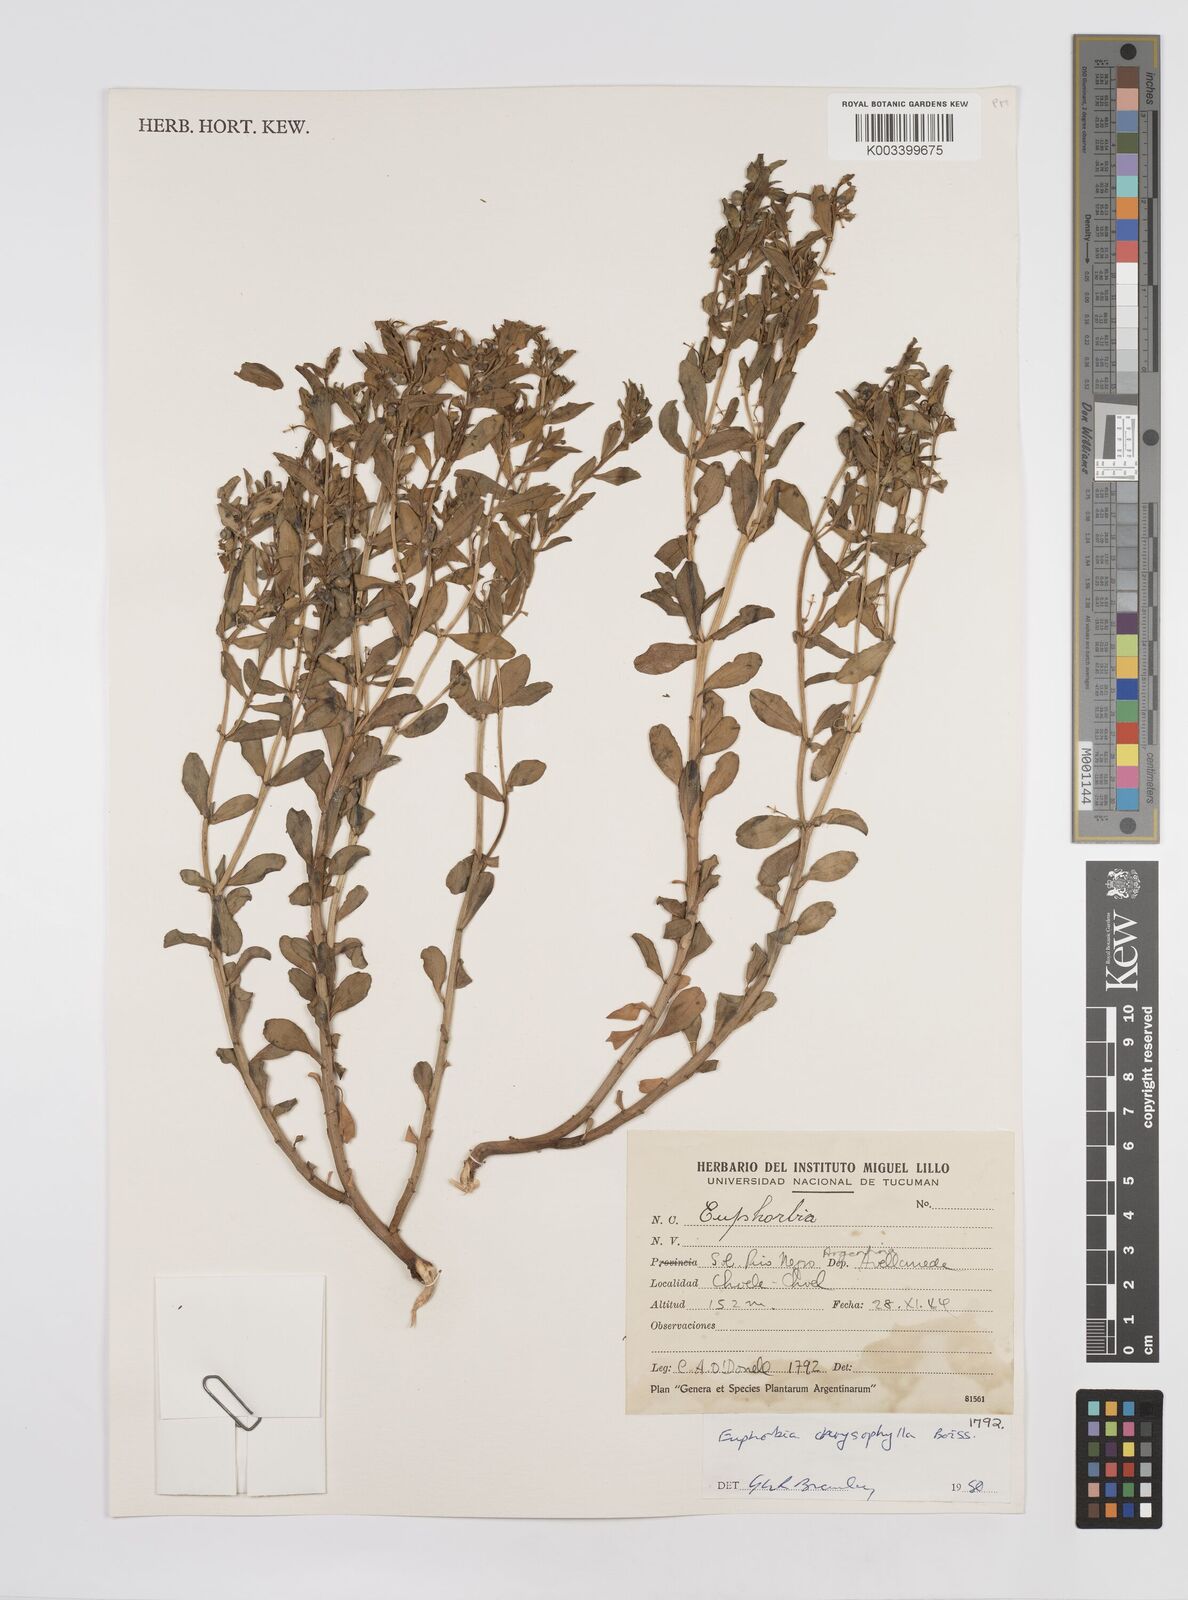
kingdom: Plantae
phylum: Tracheophyta
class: Magnoliopsida
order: Malpighiales
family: Euphorbiaceae
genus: Euphorbia
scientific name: Euphorbia chrysophylla
